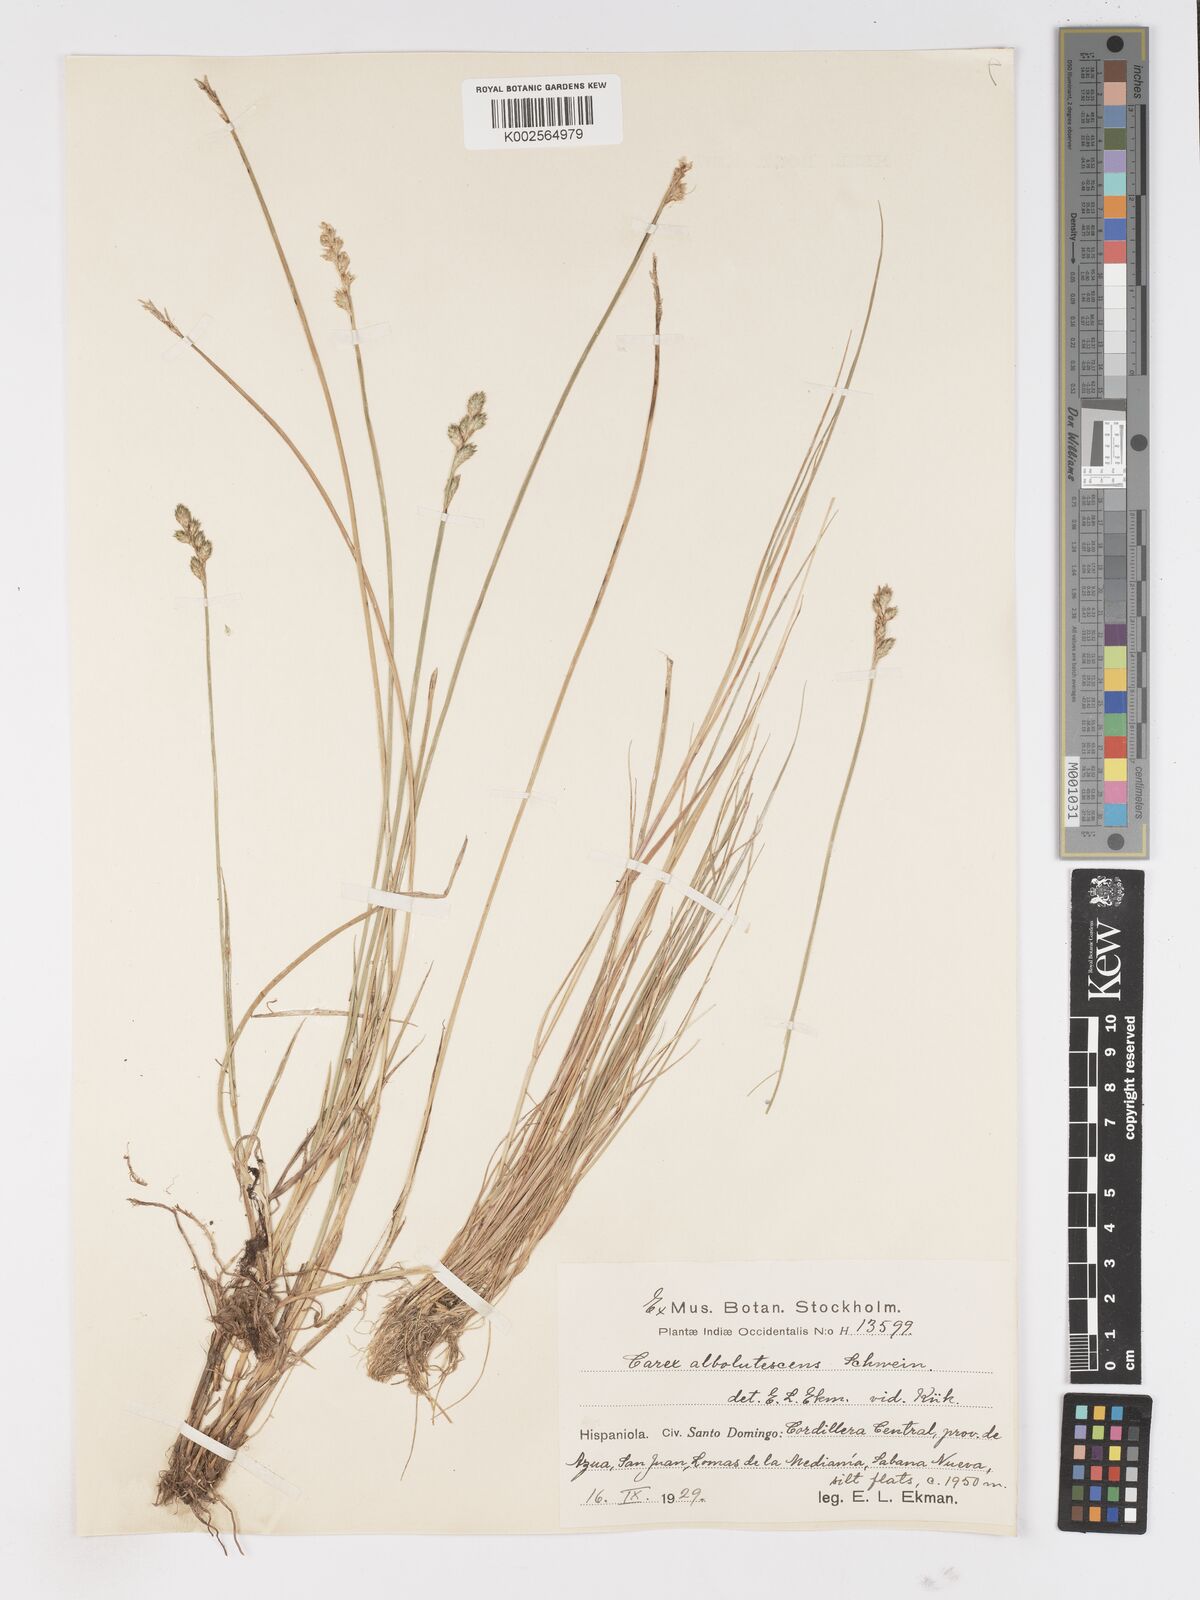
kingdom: Plantae
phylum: Tracheophyta
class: Liliopsida
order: Poales
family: Cyperaceae
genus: Carex
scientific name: Carex longii
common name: Long's sedge
